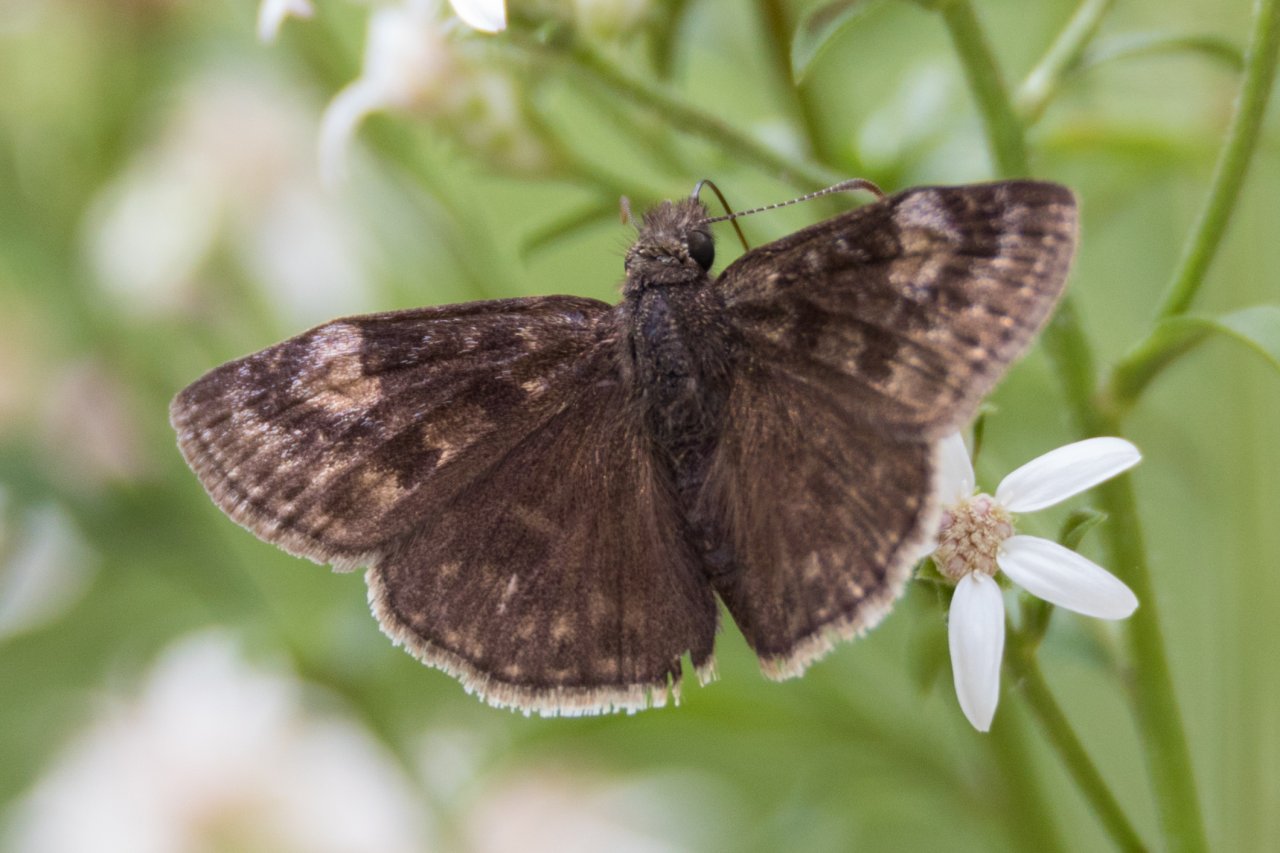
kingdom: Animalia
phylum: Arthropoda
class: Insecta
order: Lepidoptera
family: Hesperiidae
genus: Gesta
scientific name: Gesta
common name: Wild Indigo Duskywing
